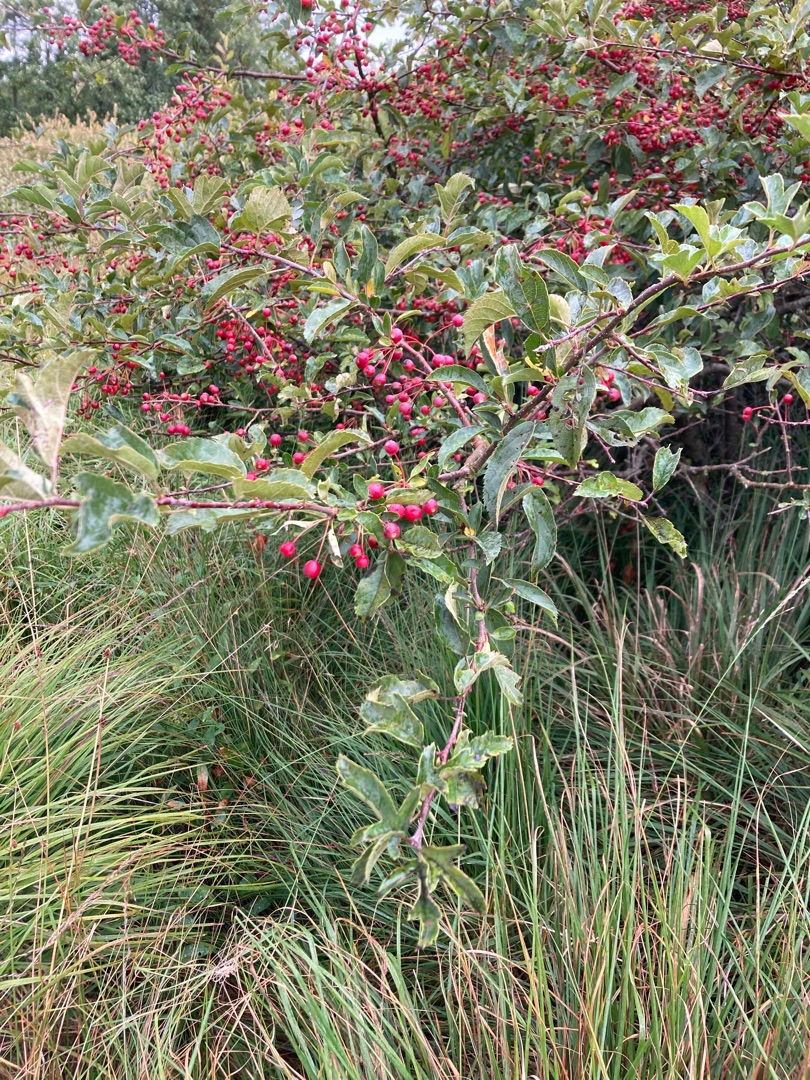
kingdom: Plantae
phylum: Tracheophyta
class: Magnoliopsida
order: Rosales
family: Rosaceae
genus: Malus
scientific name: Malus toringo
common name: Sargents-æble
